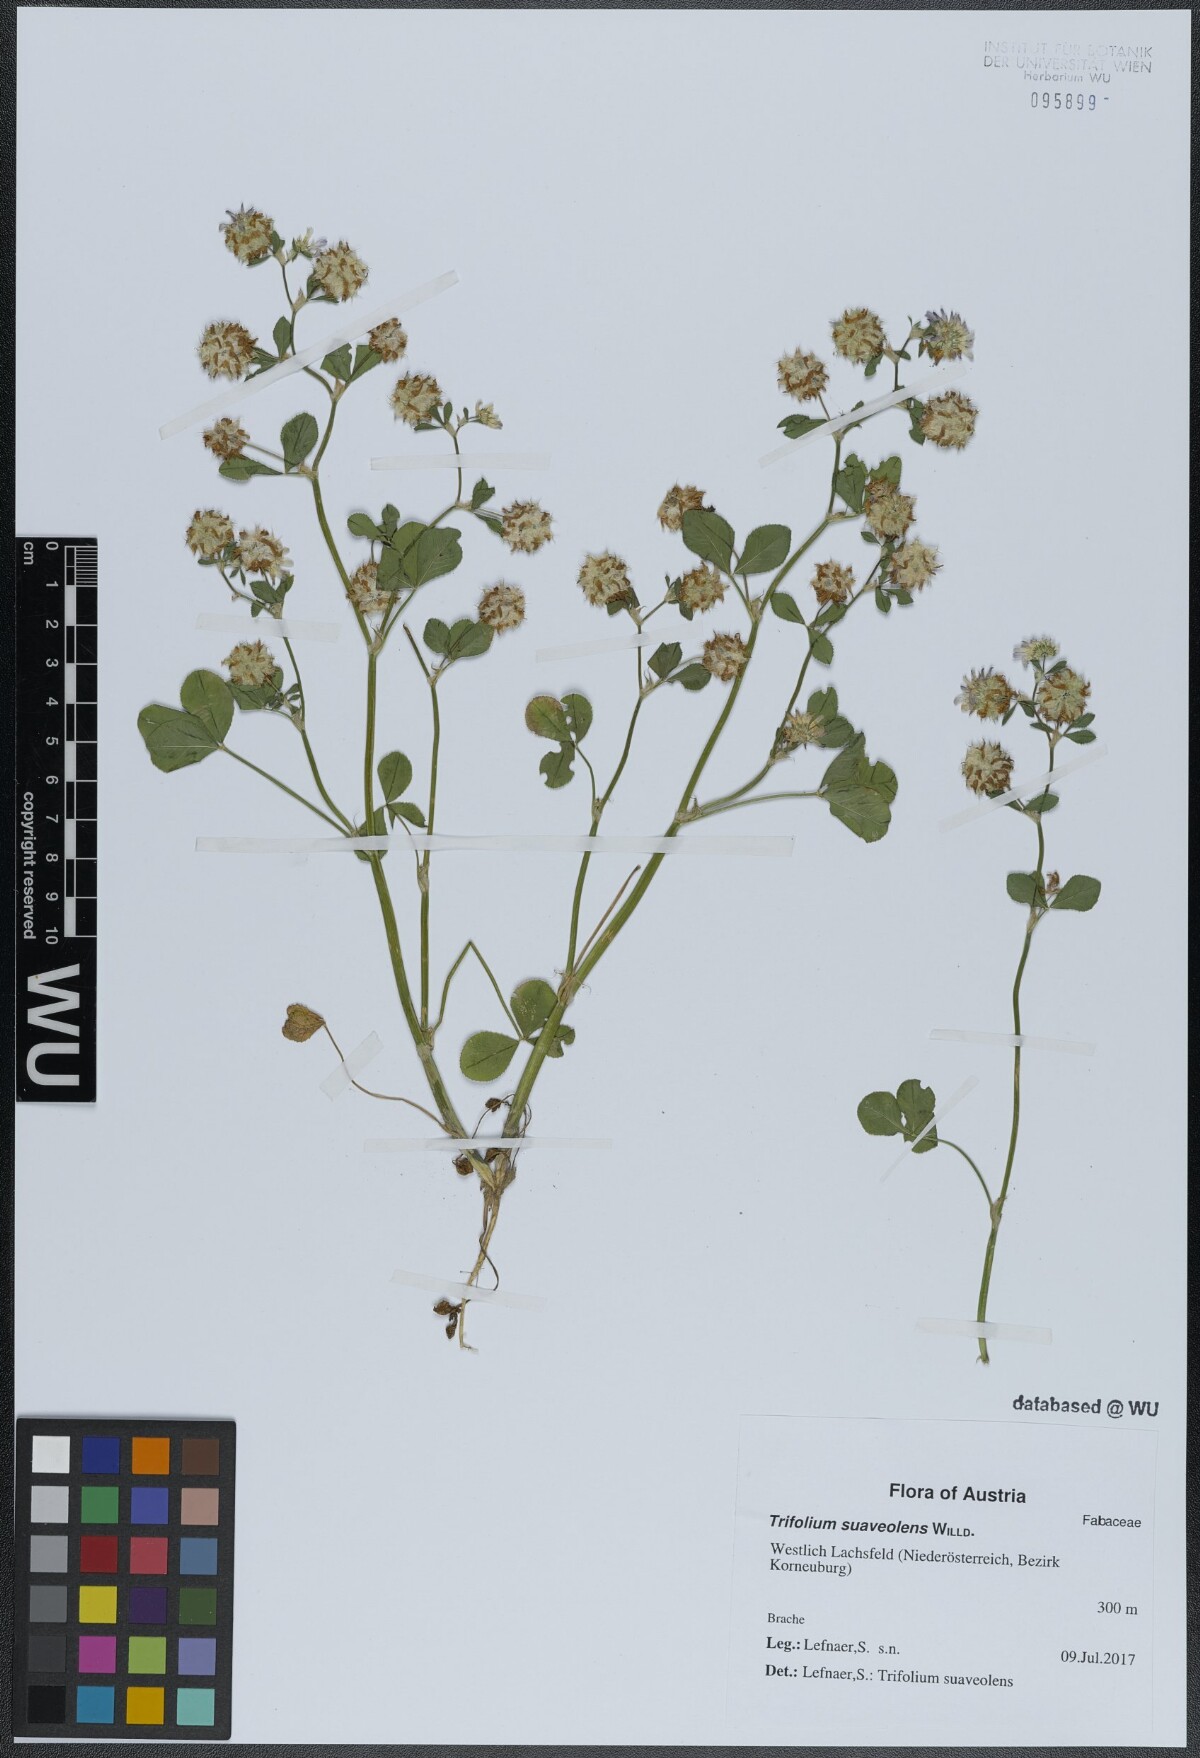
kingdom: Plantae
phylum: Tracheophyta
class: Magnoliopsida
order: Fabales
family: Fabaceae
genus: Trifolium
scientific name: Trifolium resupinatum
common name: Reversed clover
